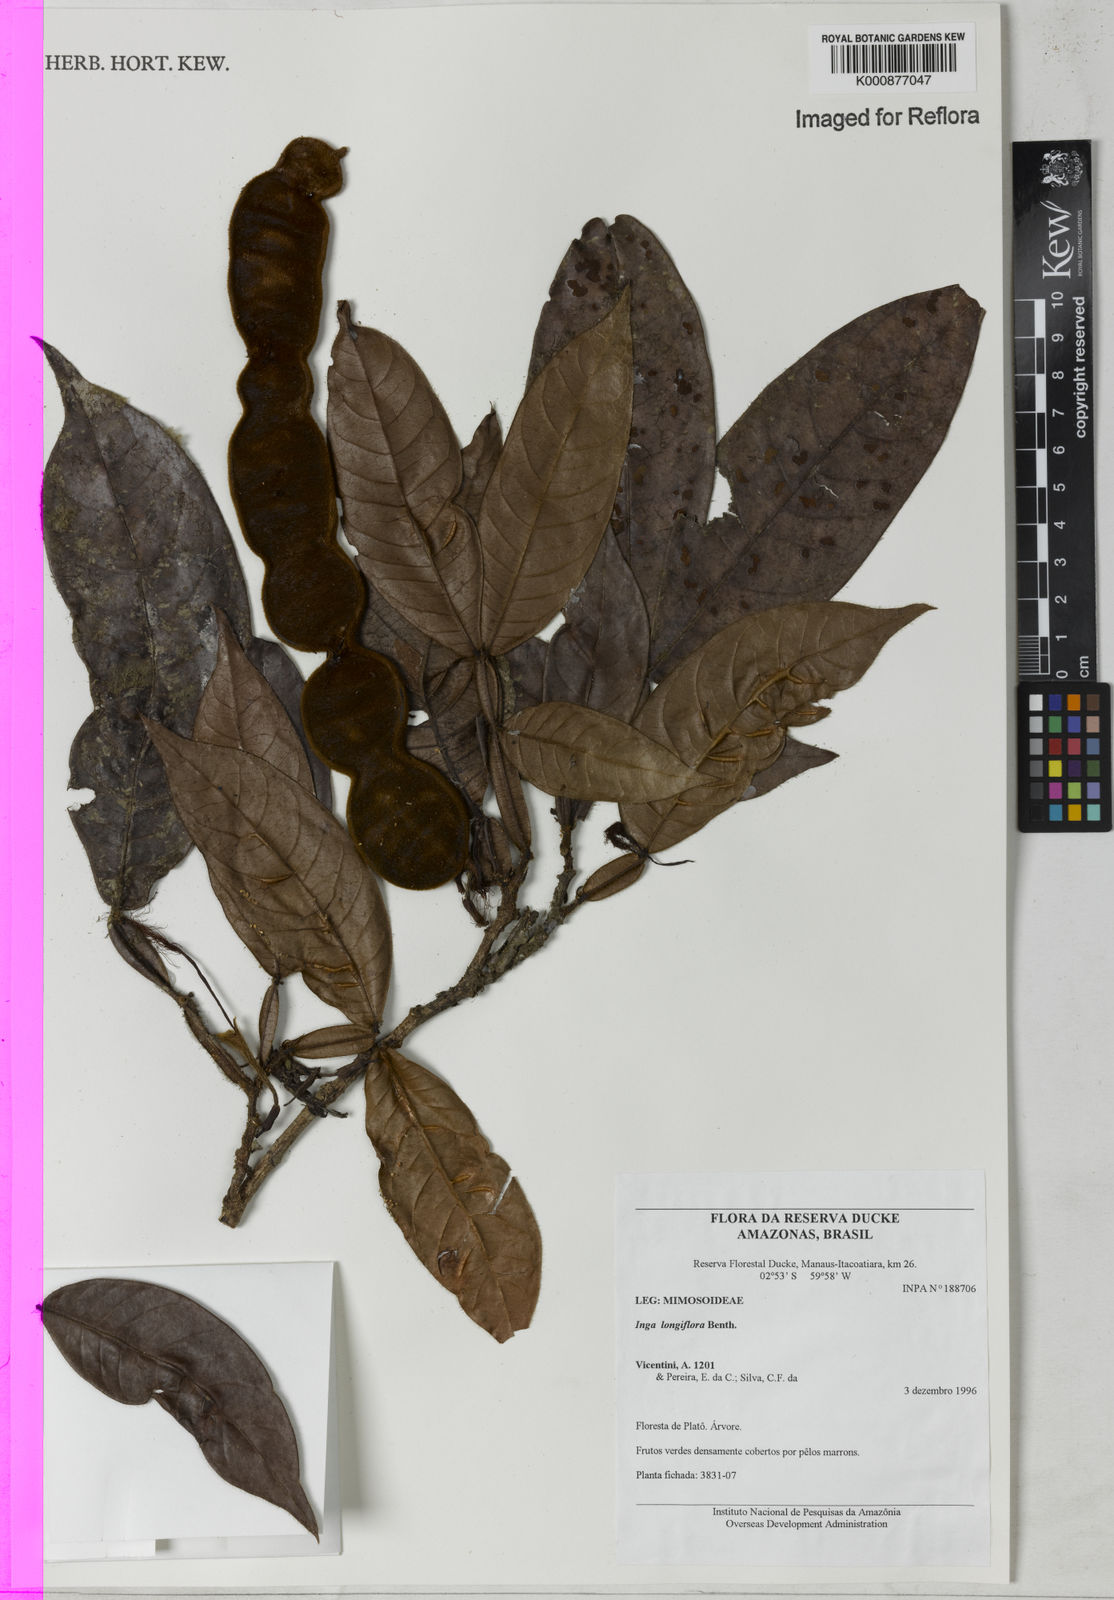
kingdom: Plantae
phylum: Tracheophyta
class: Magnoliopsida
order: Fabales
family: Fabaceae
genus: Inga
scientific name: Inga longiflora
